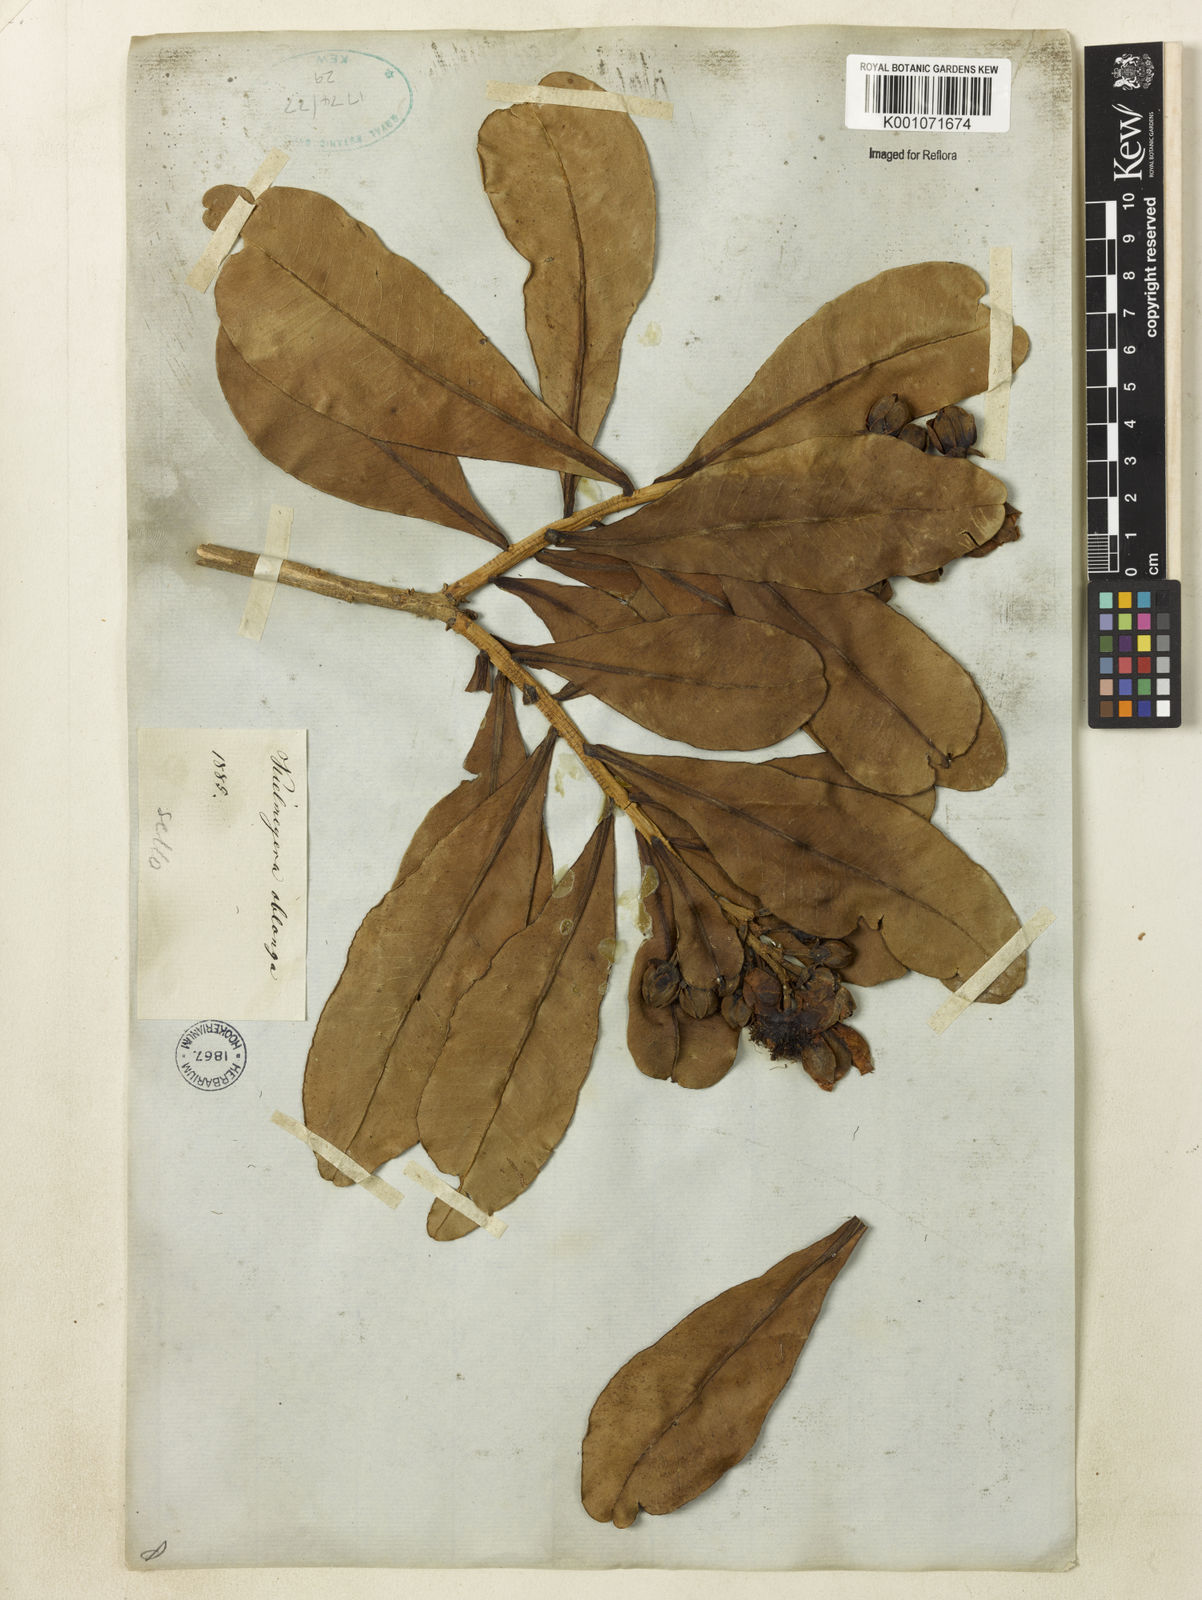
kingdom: Plantae
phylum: Tracheophyta
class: Magnoliopsida
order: Malpighiales
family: Calophyllaceae
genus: Kielmeyera
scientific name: Kielmeyera
